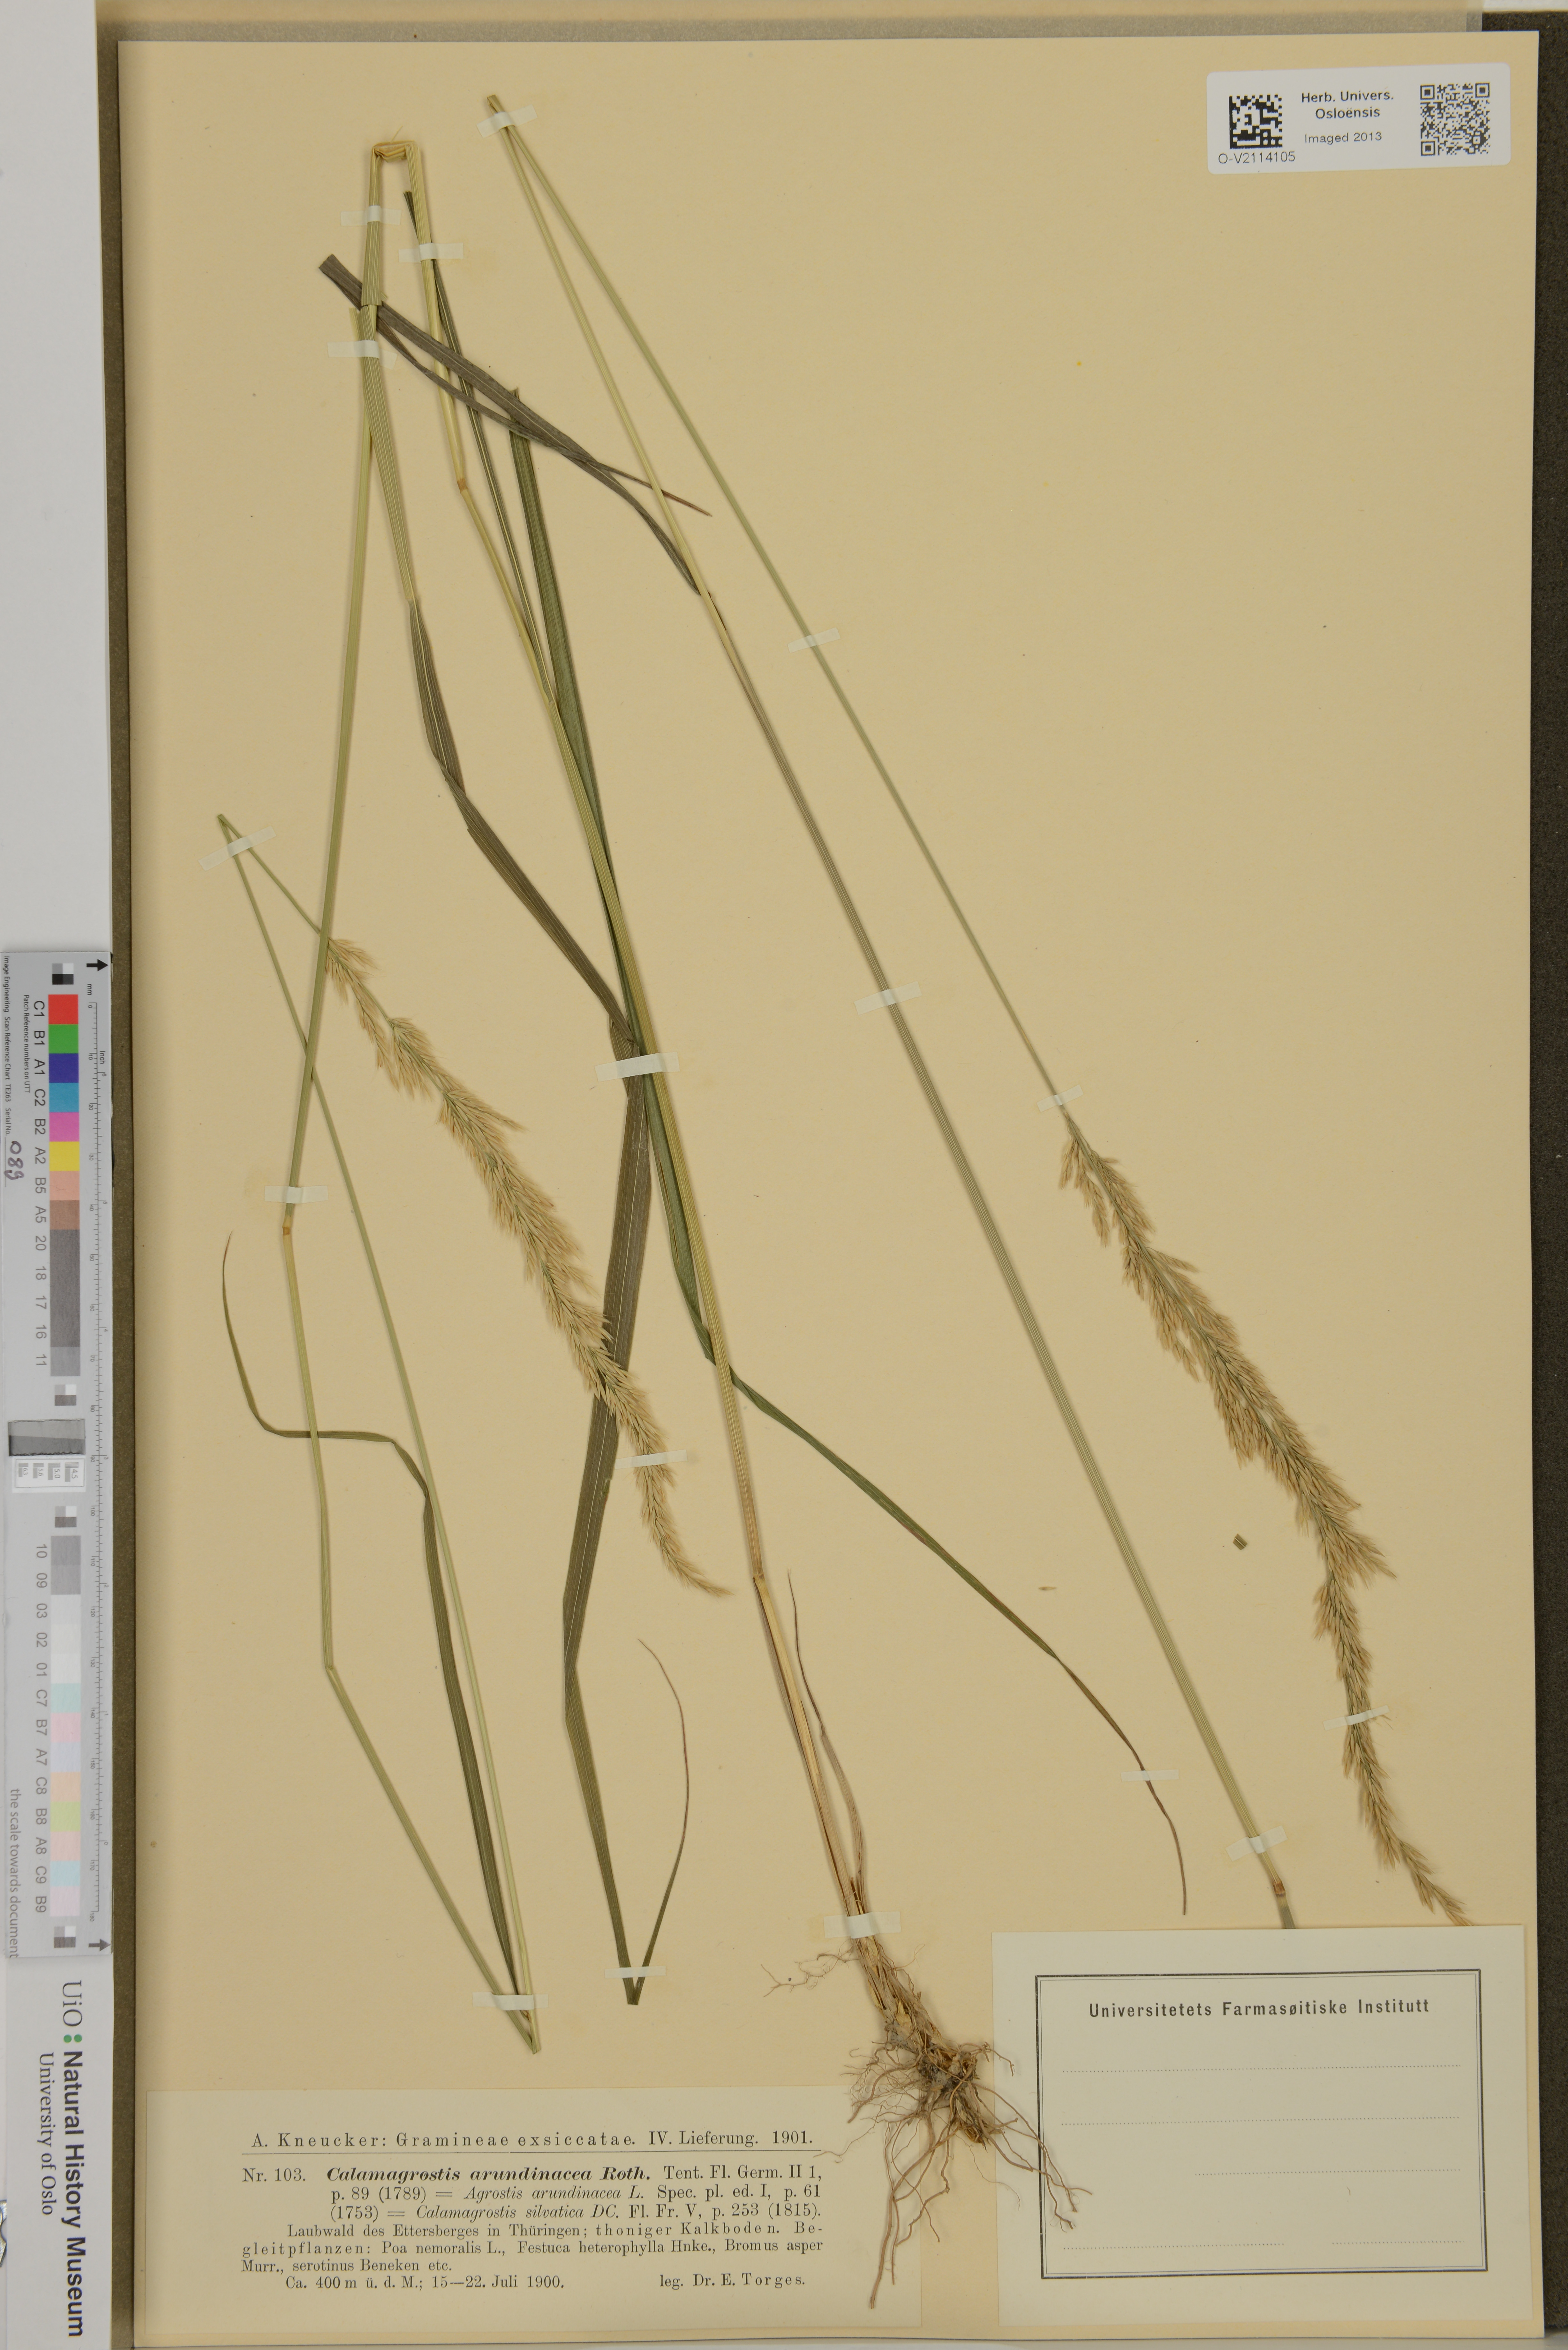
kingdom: Plantae
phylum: Tracheophyta
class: Liliopsida
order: Poales
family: Poaceae
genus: Calamagrostis
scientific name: Calamagrostis arundinacea
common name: Metskastik
